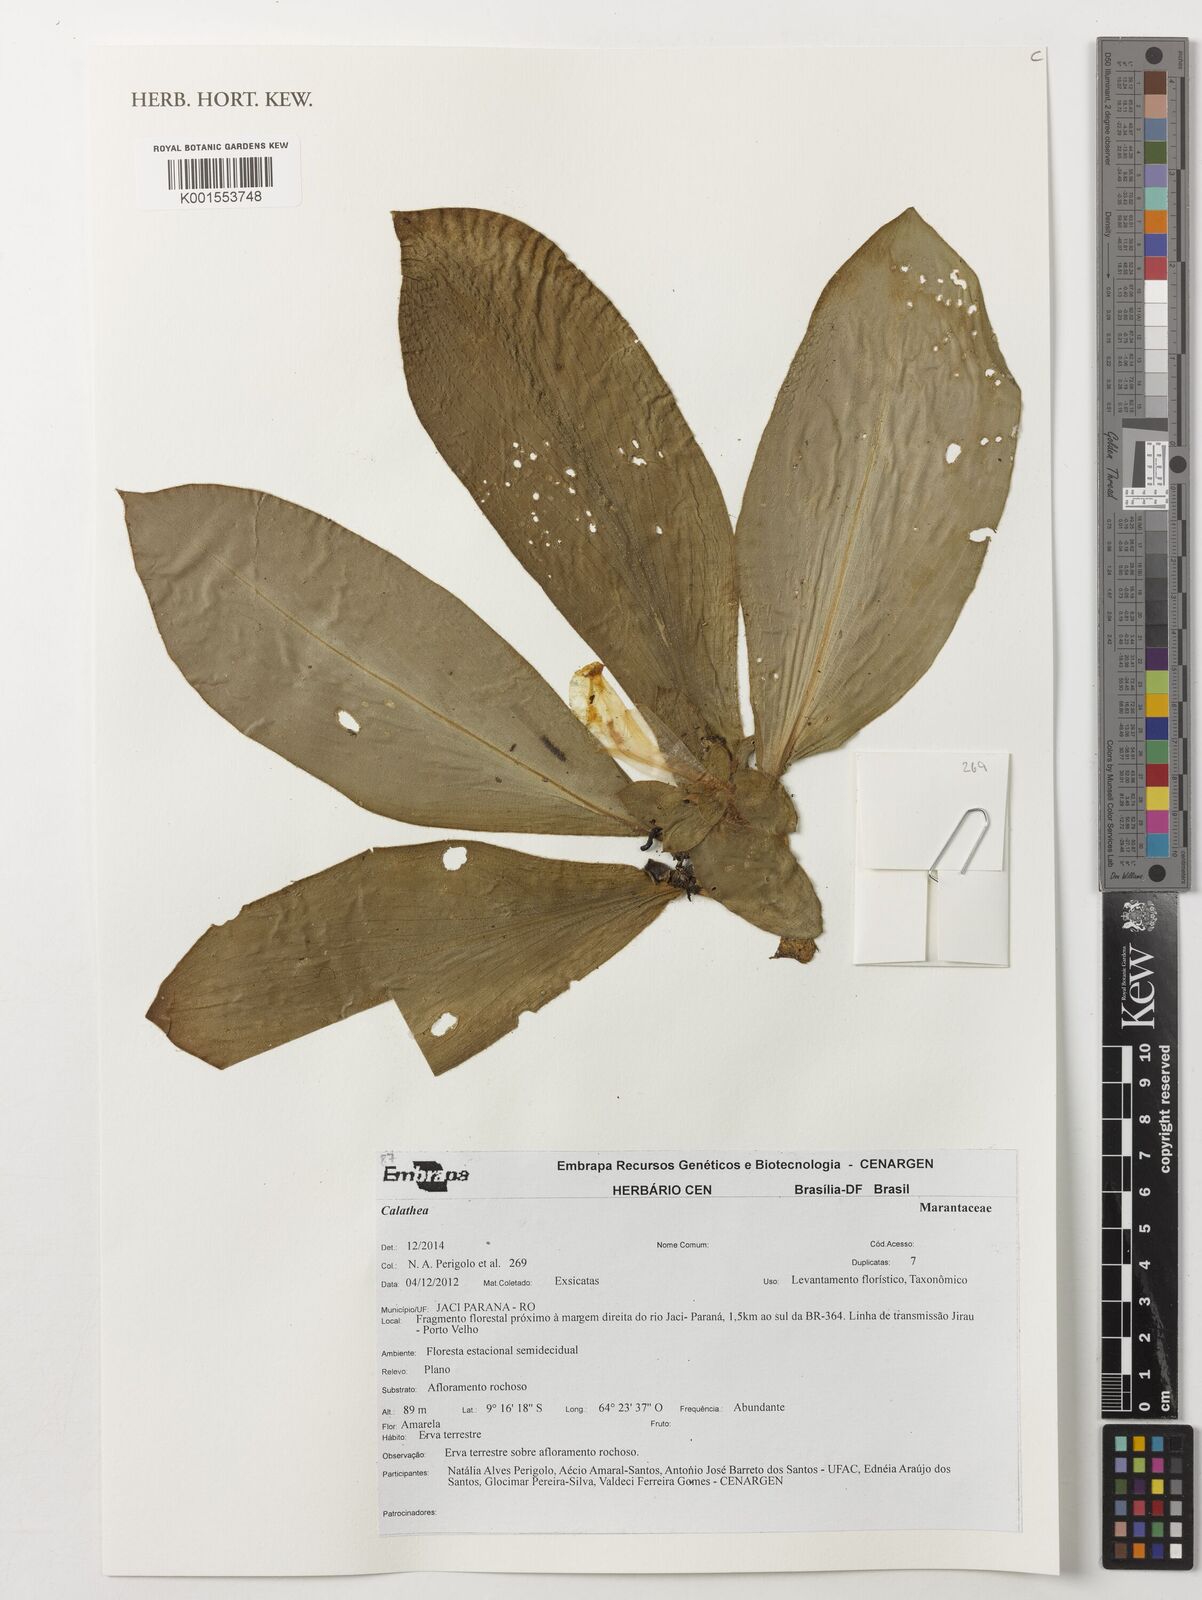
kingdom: Plantae
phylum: Tracheophyta
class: Liliopsida
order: Zingiberales
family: Marantaceae
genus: Calathea
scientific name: Calathea
